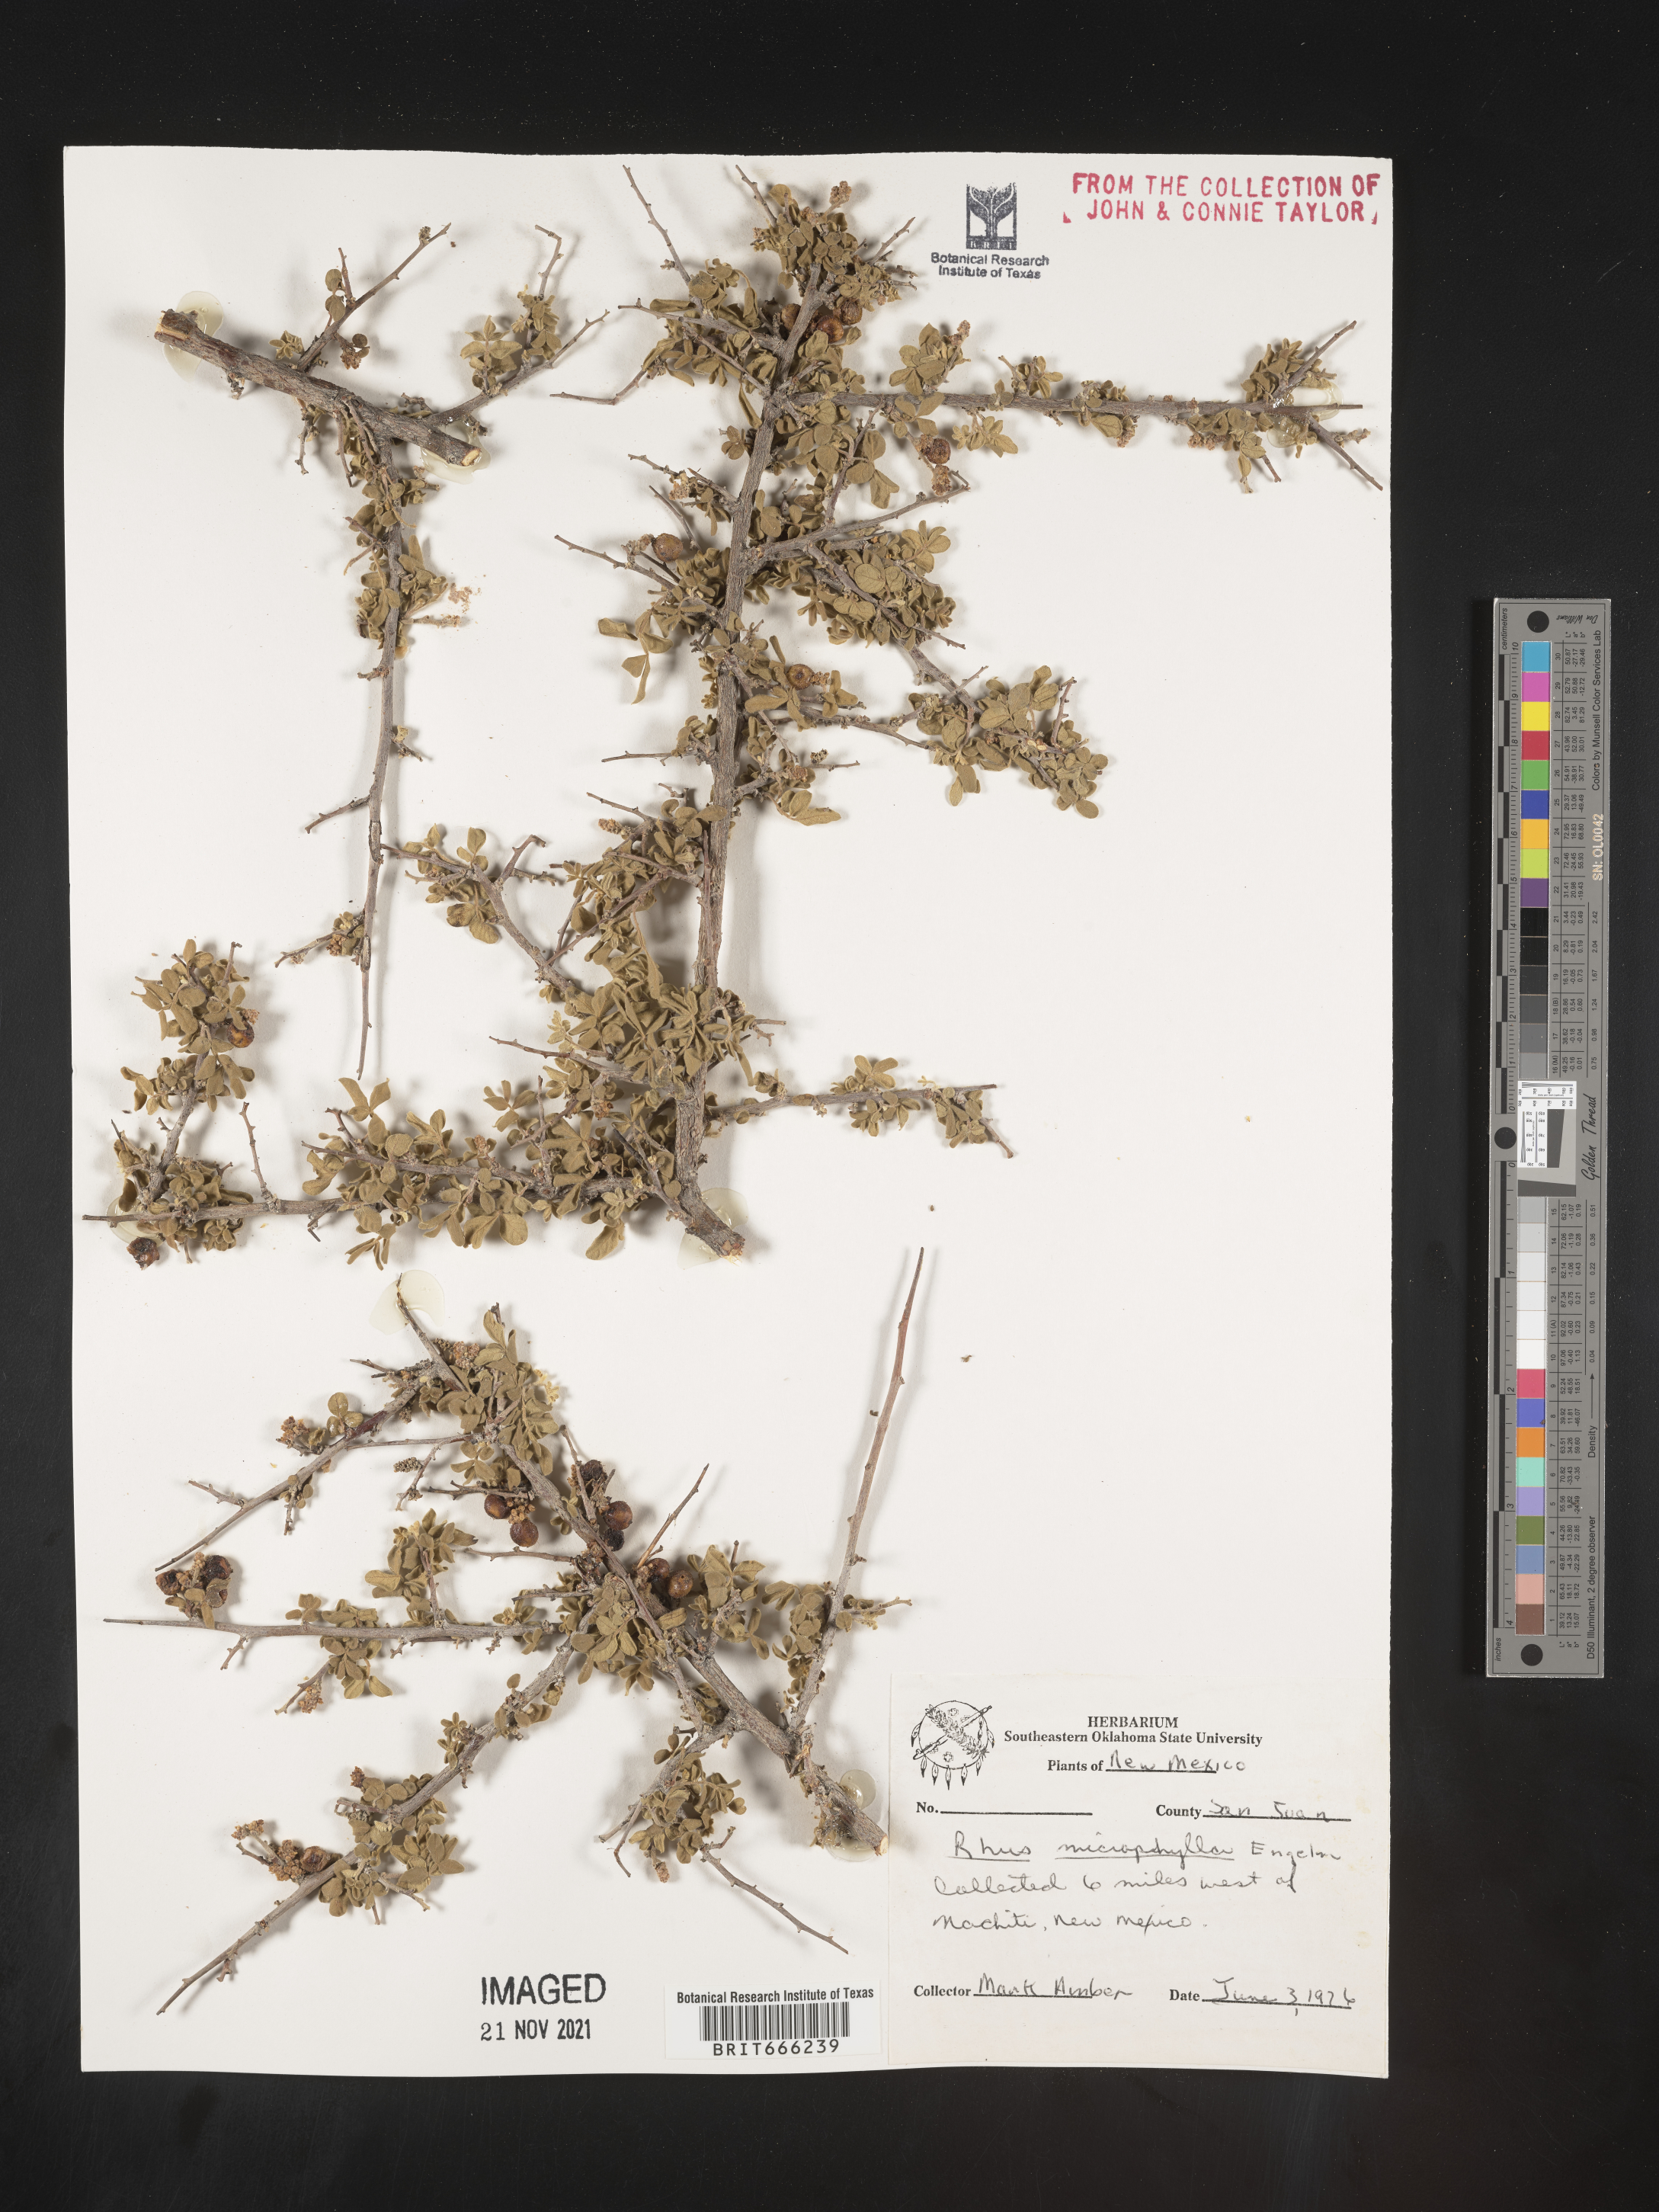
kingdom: Plantae
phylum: Tracheophyta
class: Magnoliopsida
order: Sapindales
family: Anacardiaceae
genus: Rhus
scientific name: Rhus
